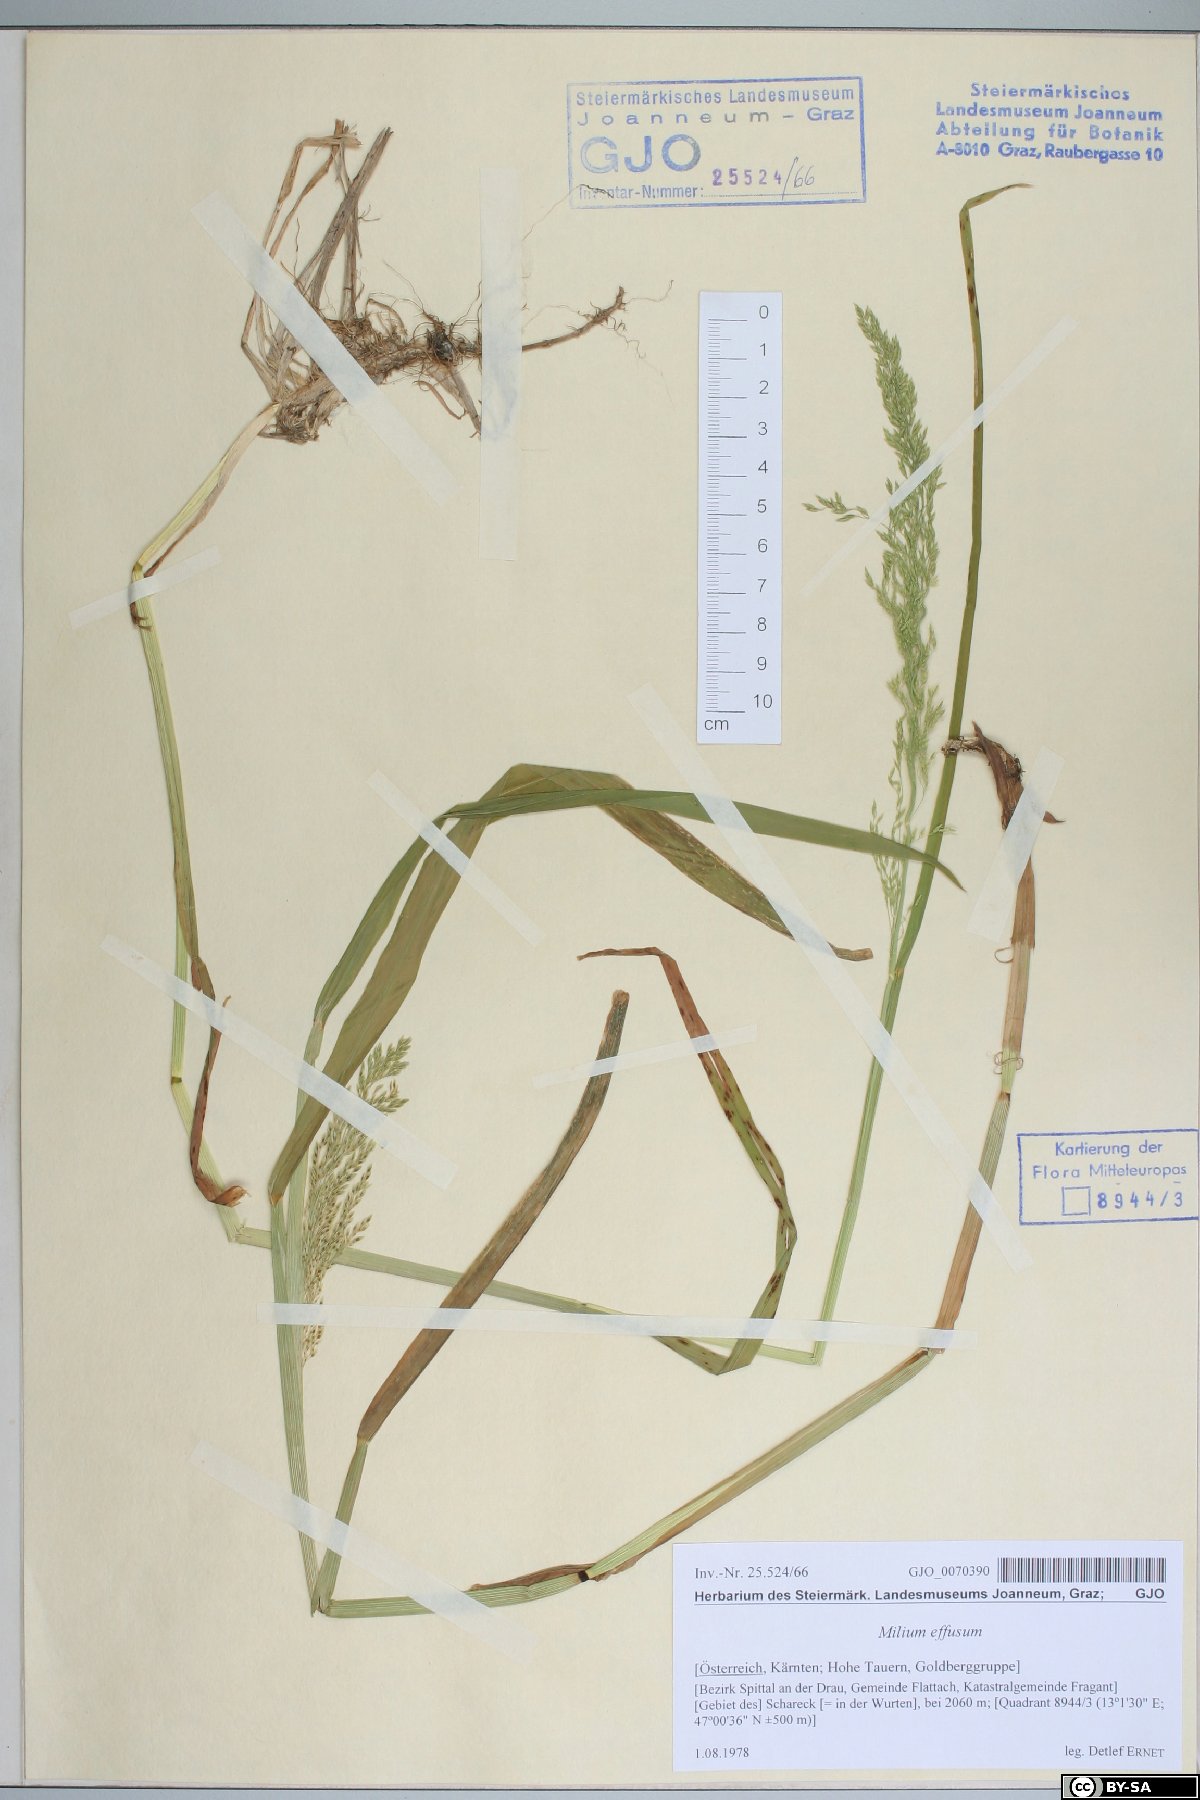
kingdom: Plantae
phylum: Tracheophyta
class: Liliopsida
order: Poales
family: Poaceae
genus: Milium
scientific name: Milium effusum
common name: Wood millet
